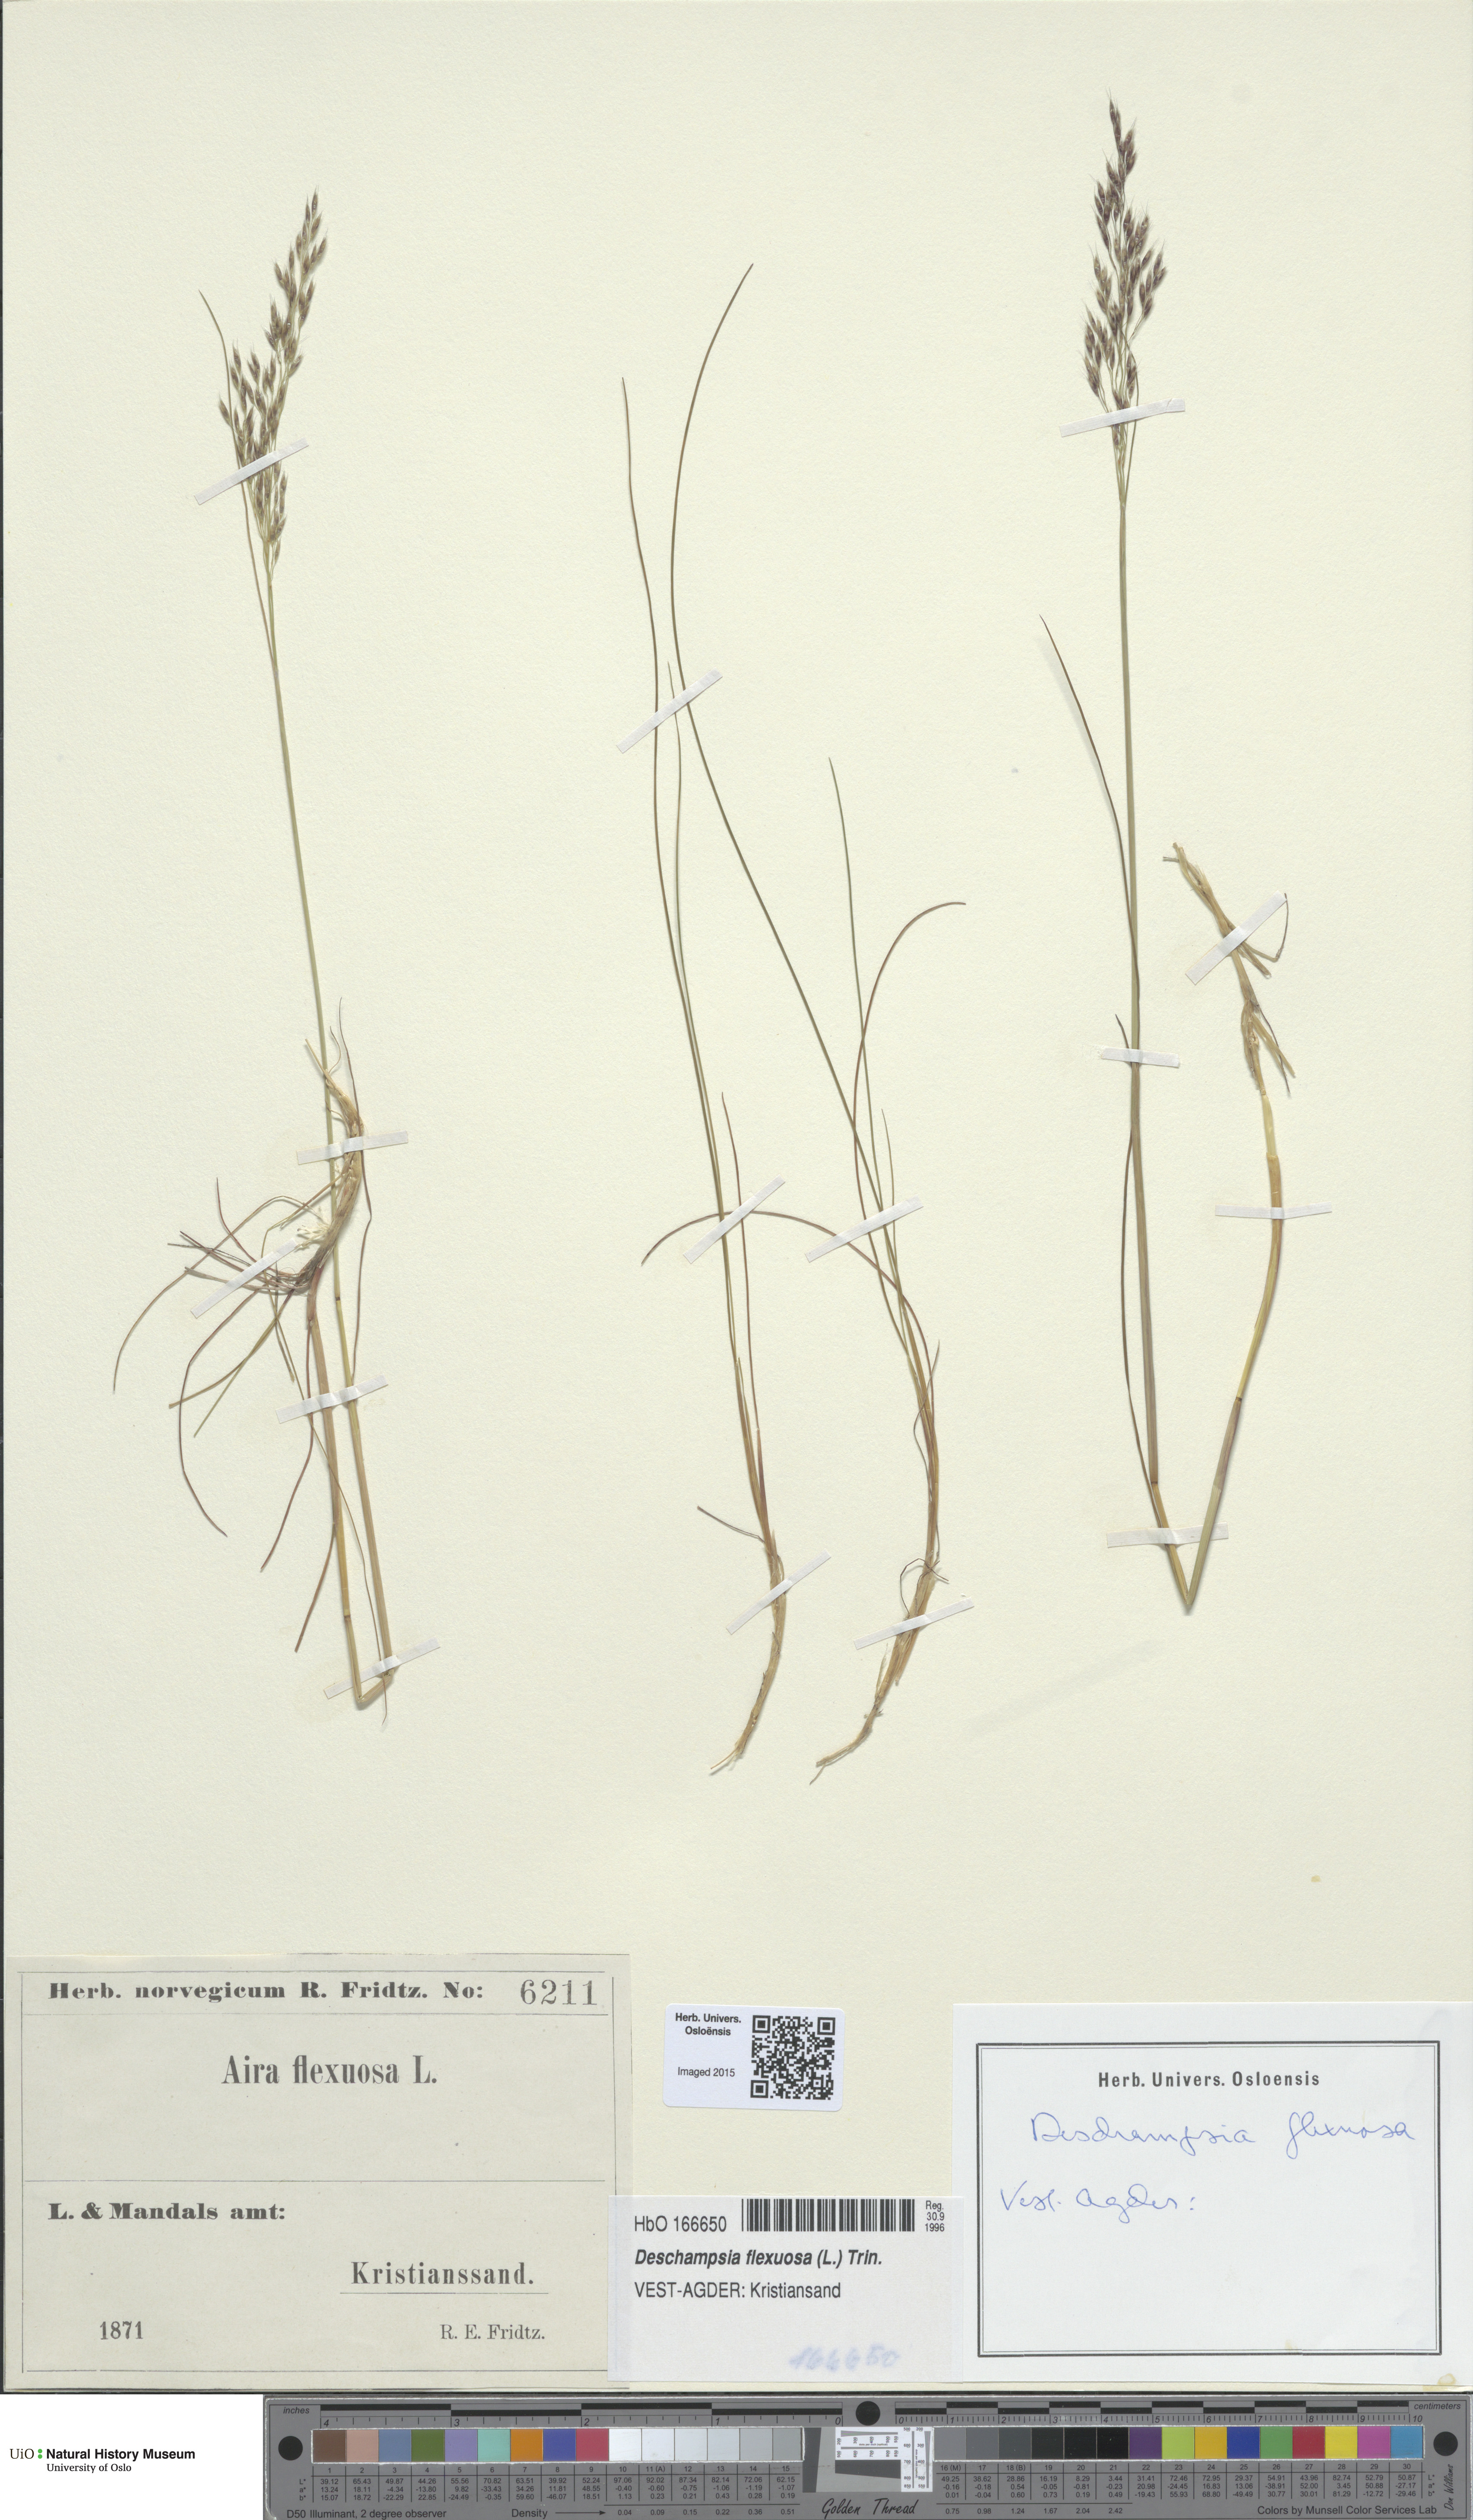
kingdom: Plantae
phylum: Tracheophyta
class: Liliopsida
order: Poales
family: Poaceae
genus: Avenella
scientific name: Avenella flexuosa
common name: Wavy hairgrass
